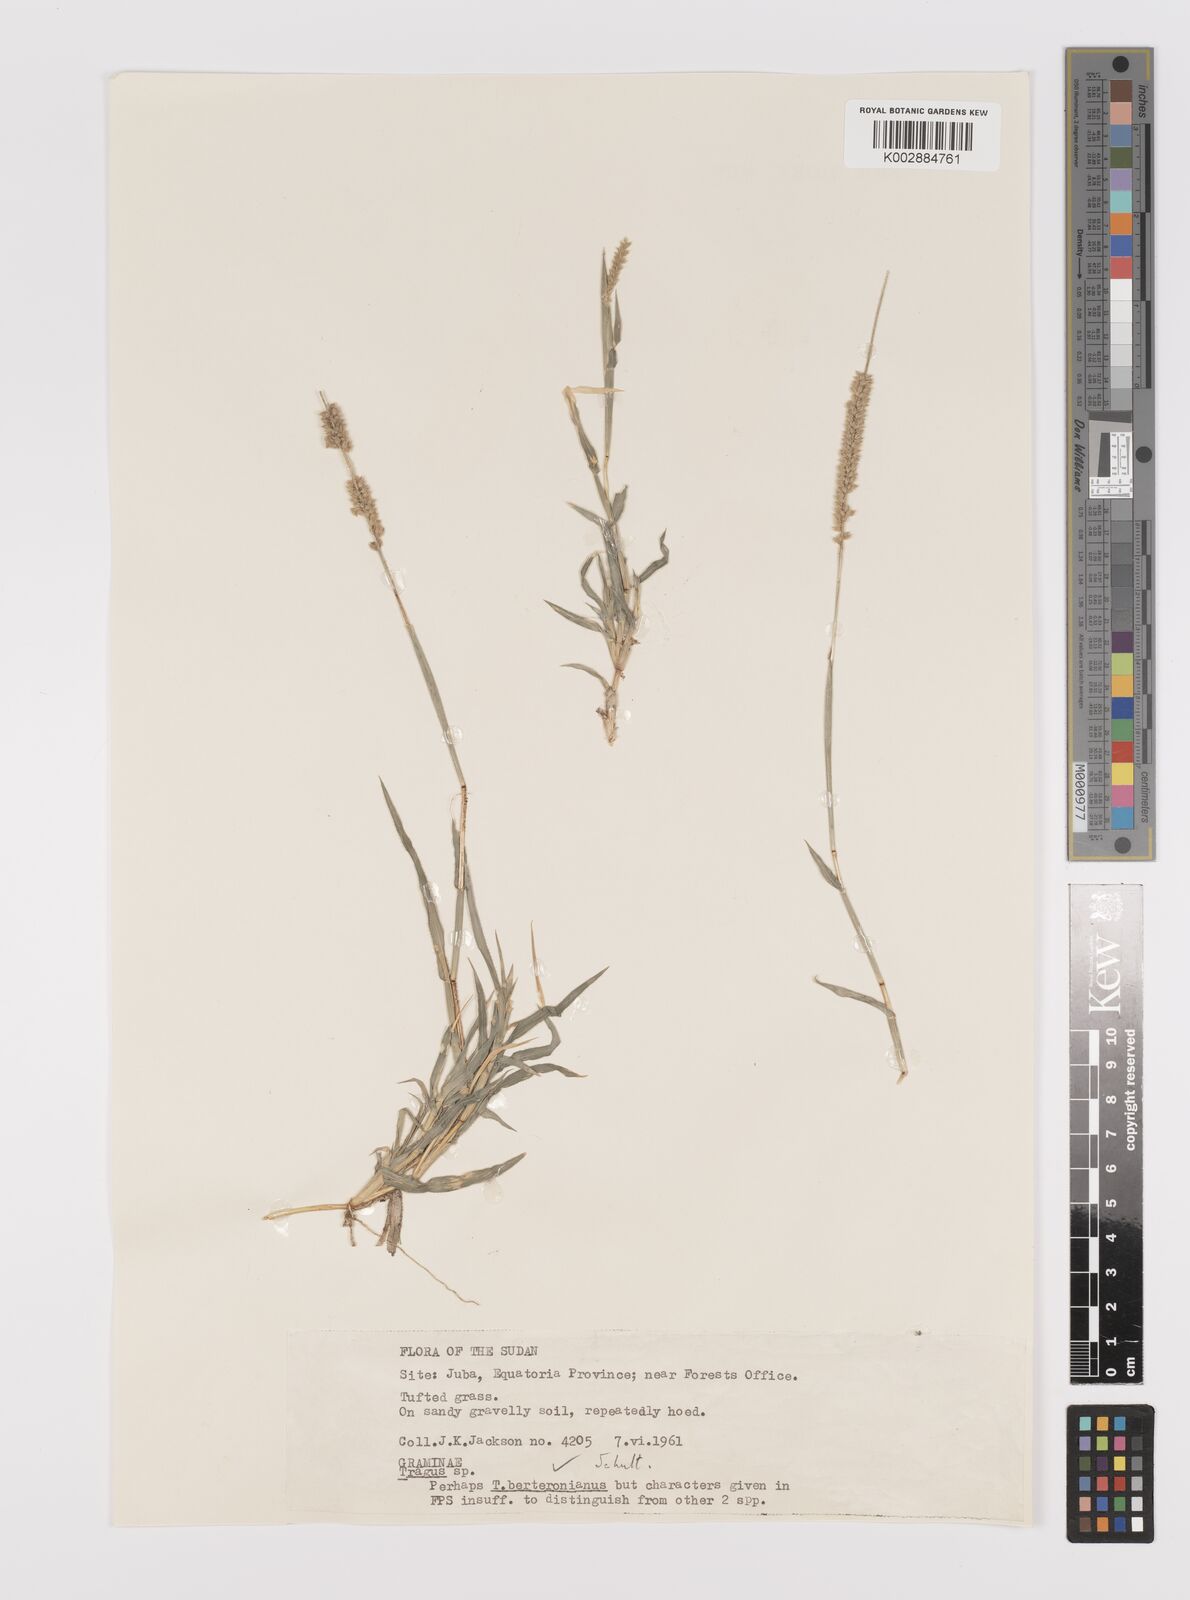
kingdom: Plantae
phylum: Tracheophyta
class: Liliopsida
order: Poales
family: Poaceae
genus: Tragus
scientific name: Tragus berteronianus
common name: African bur-grass
